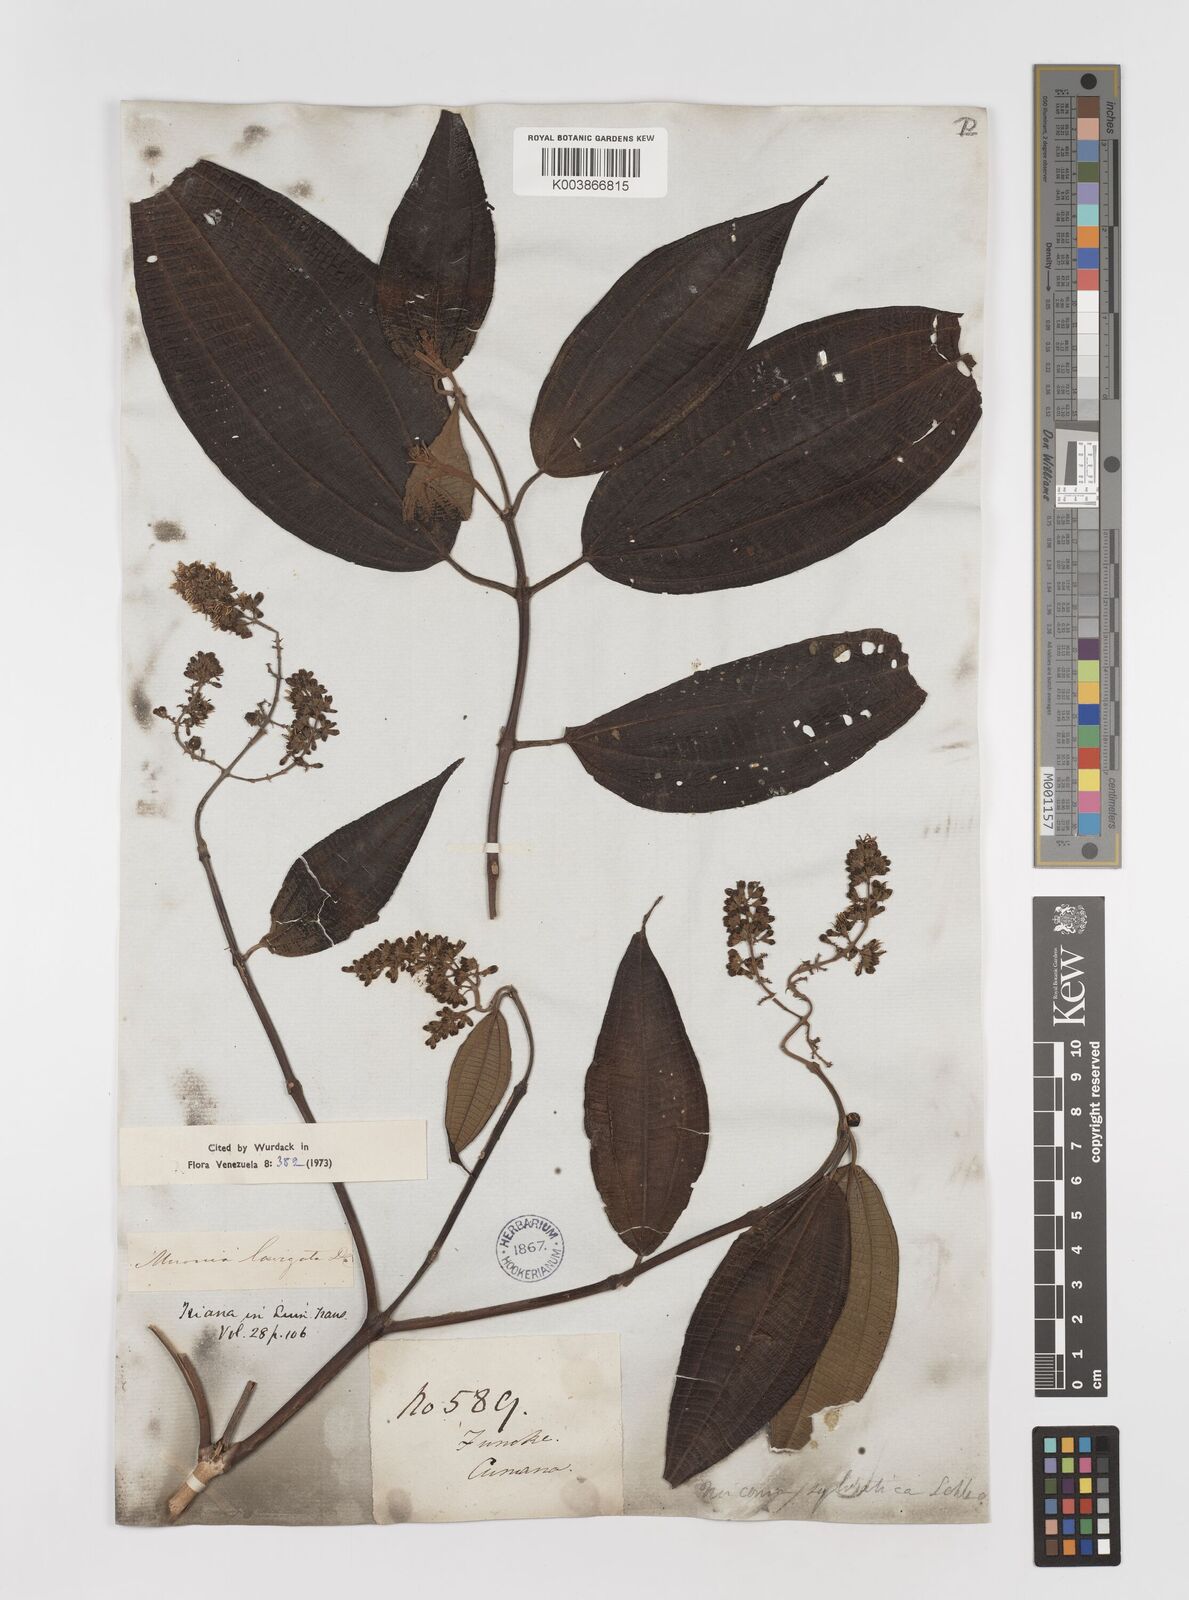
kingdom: Plantae
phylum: Tracheophyta
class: Magnoliopsida
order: Myrtales
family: Melastomataceae
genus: Miconia
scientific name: Miconia laevigata
